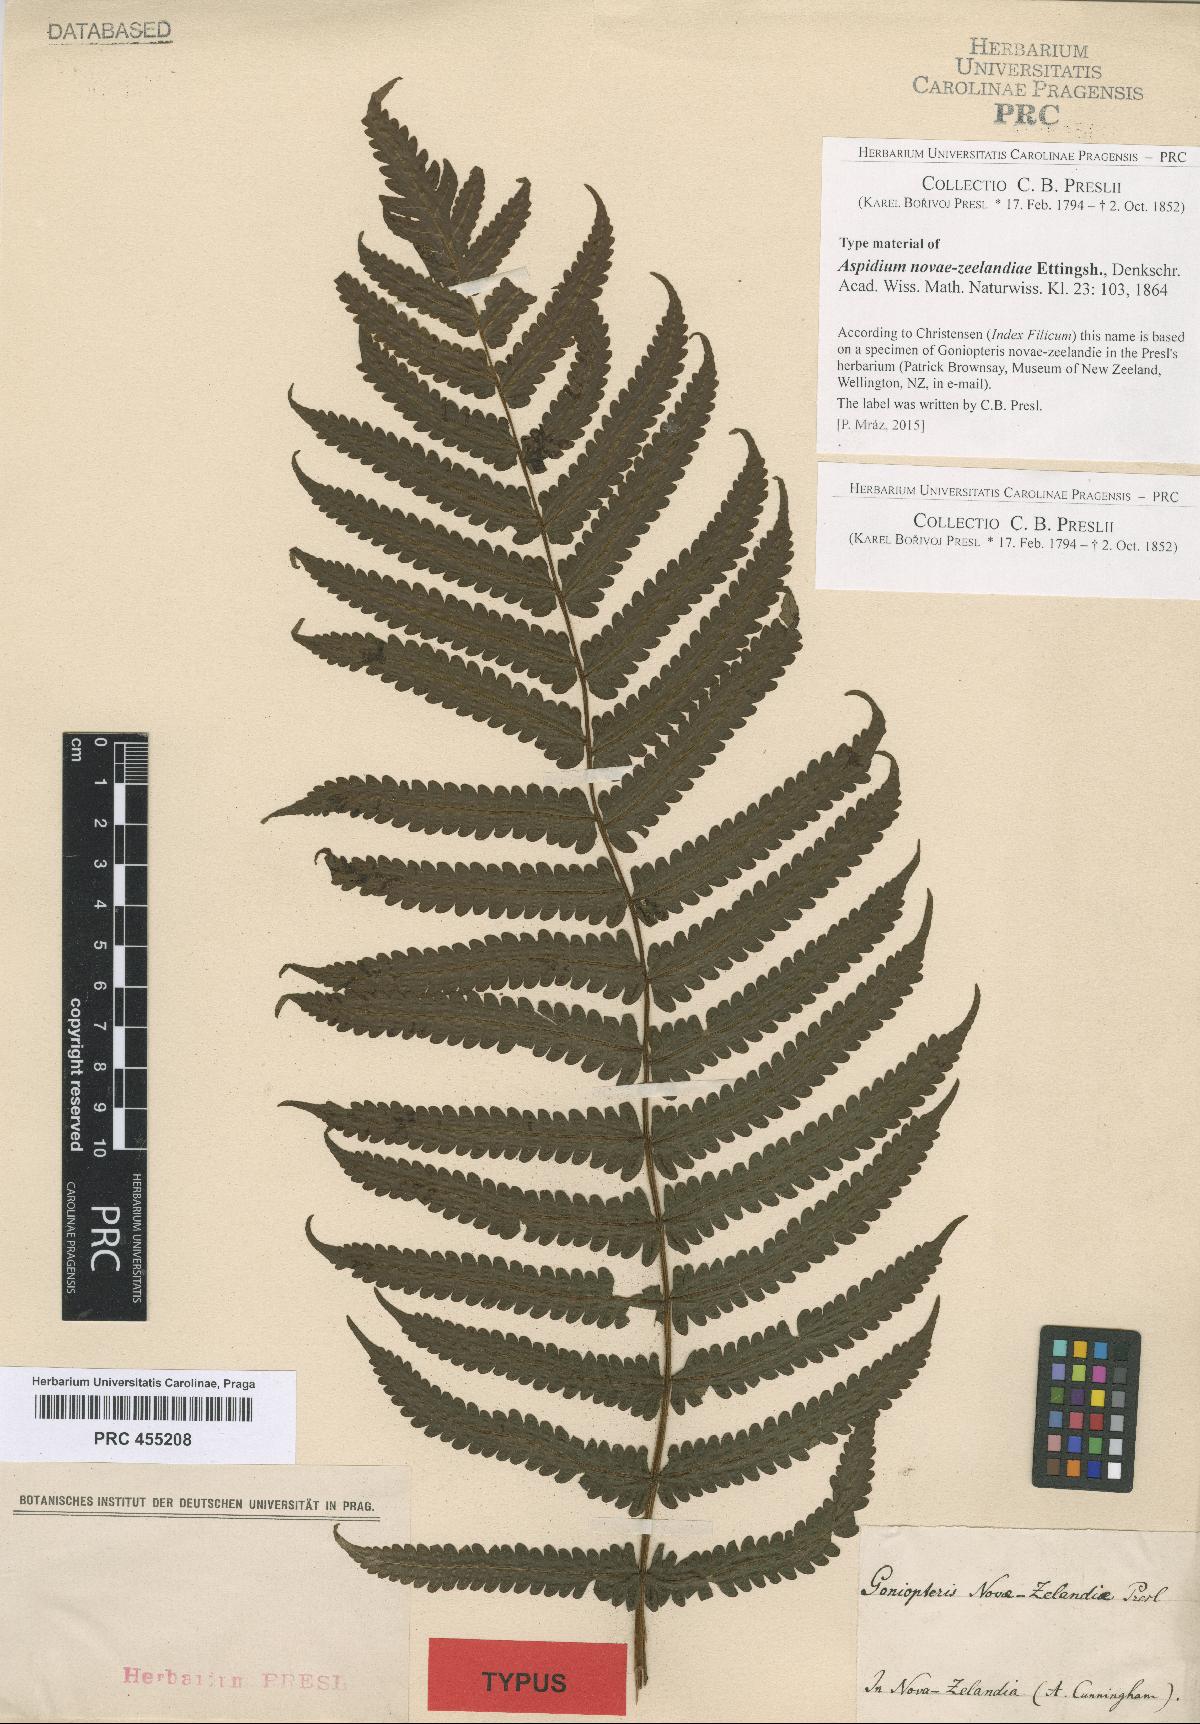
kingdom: Plantae
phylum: Tracheophyta
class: Polypodiopsida
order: Polypodiales
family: Thelypteridaceae
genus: Pakau
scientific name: Pakau pennigera
